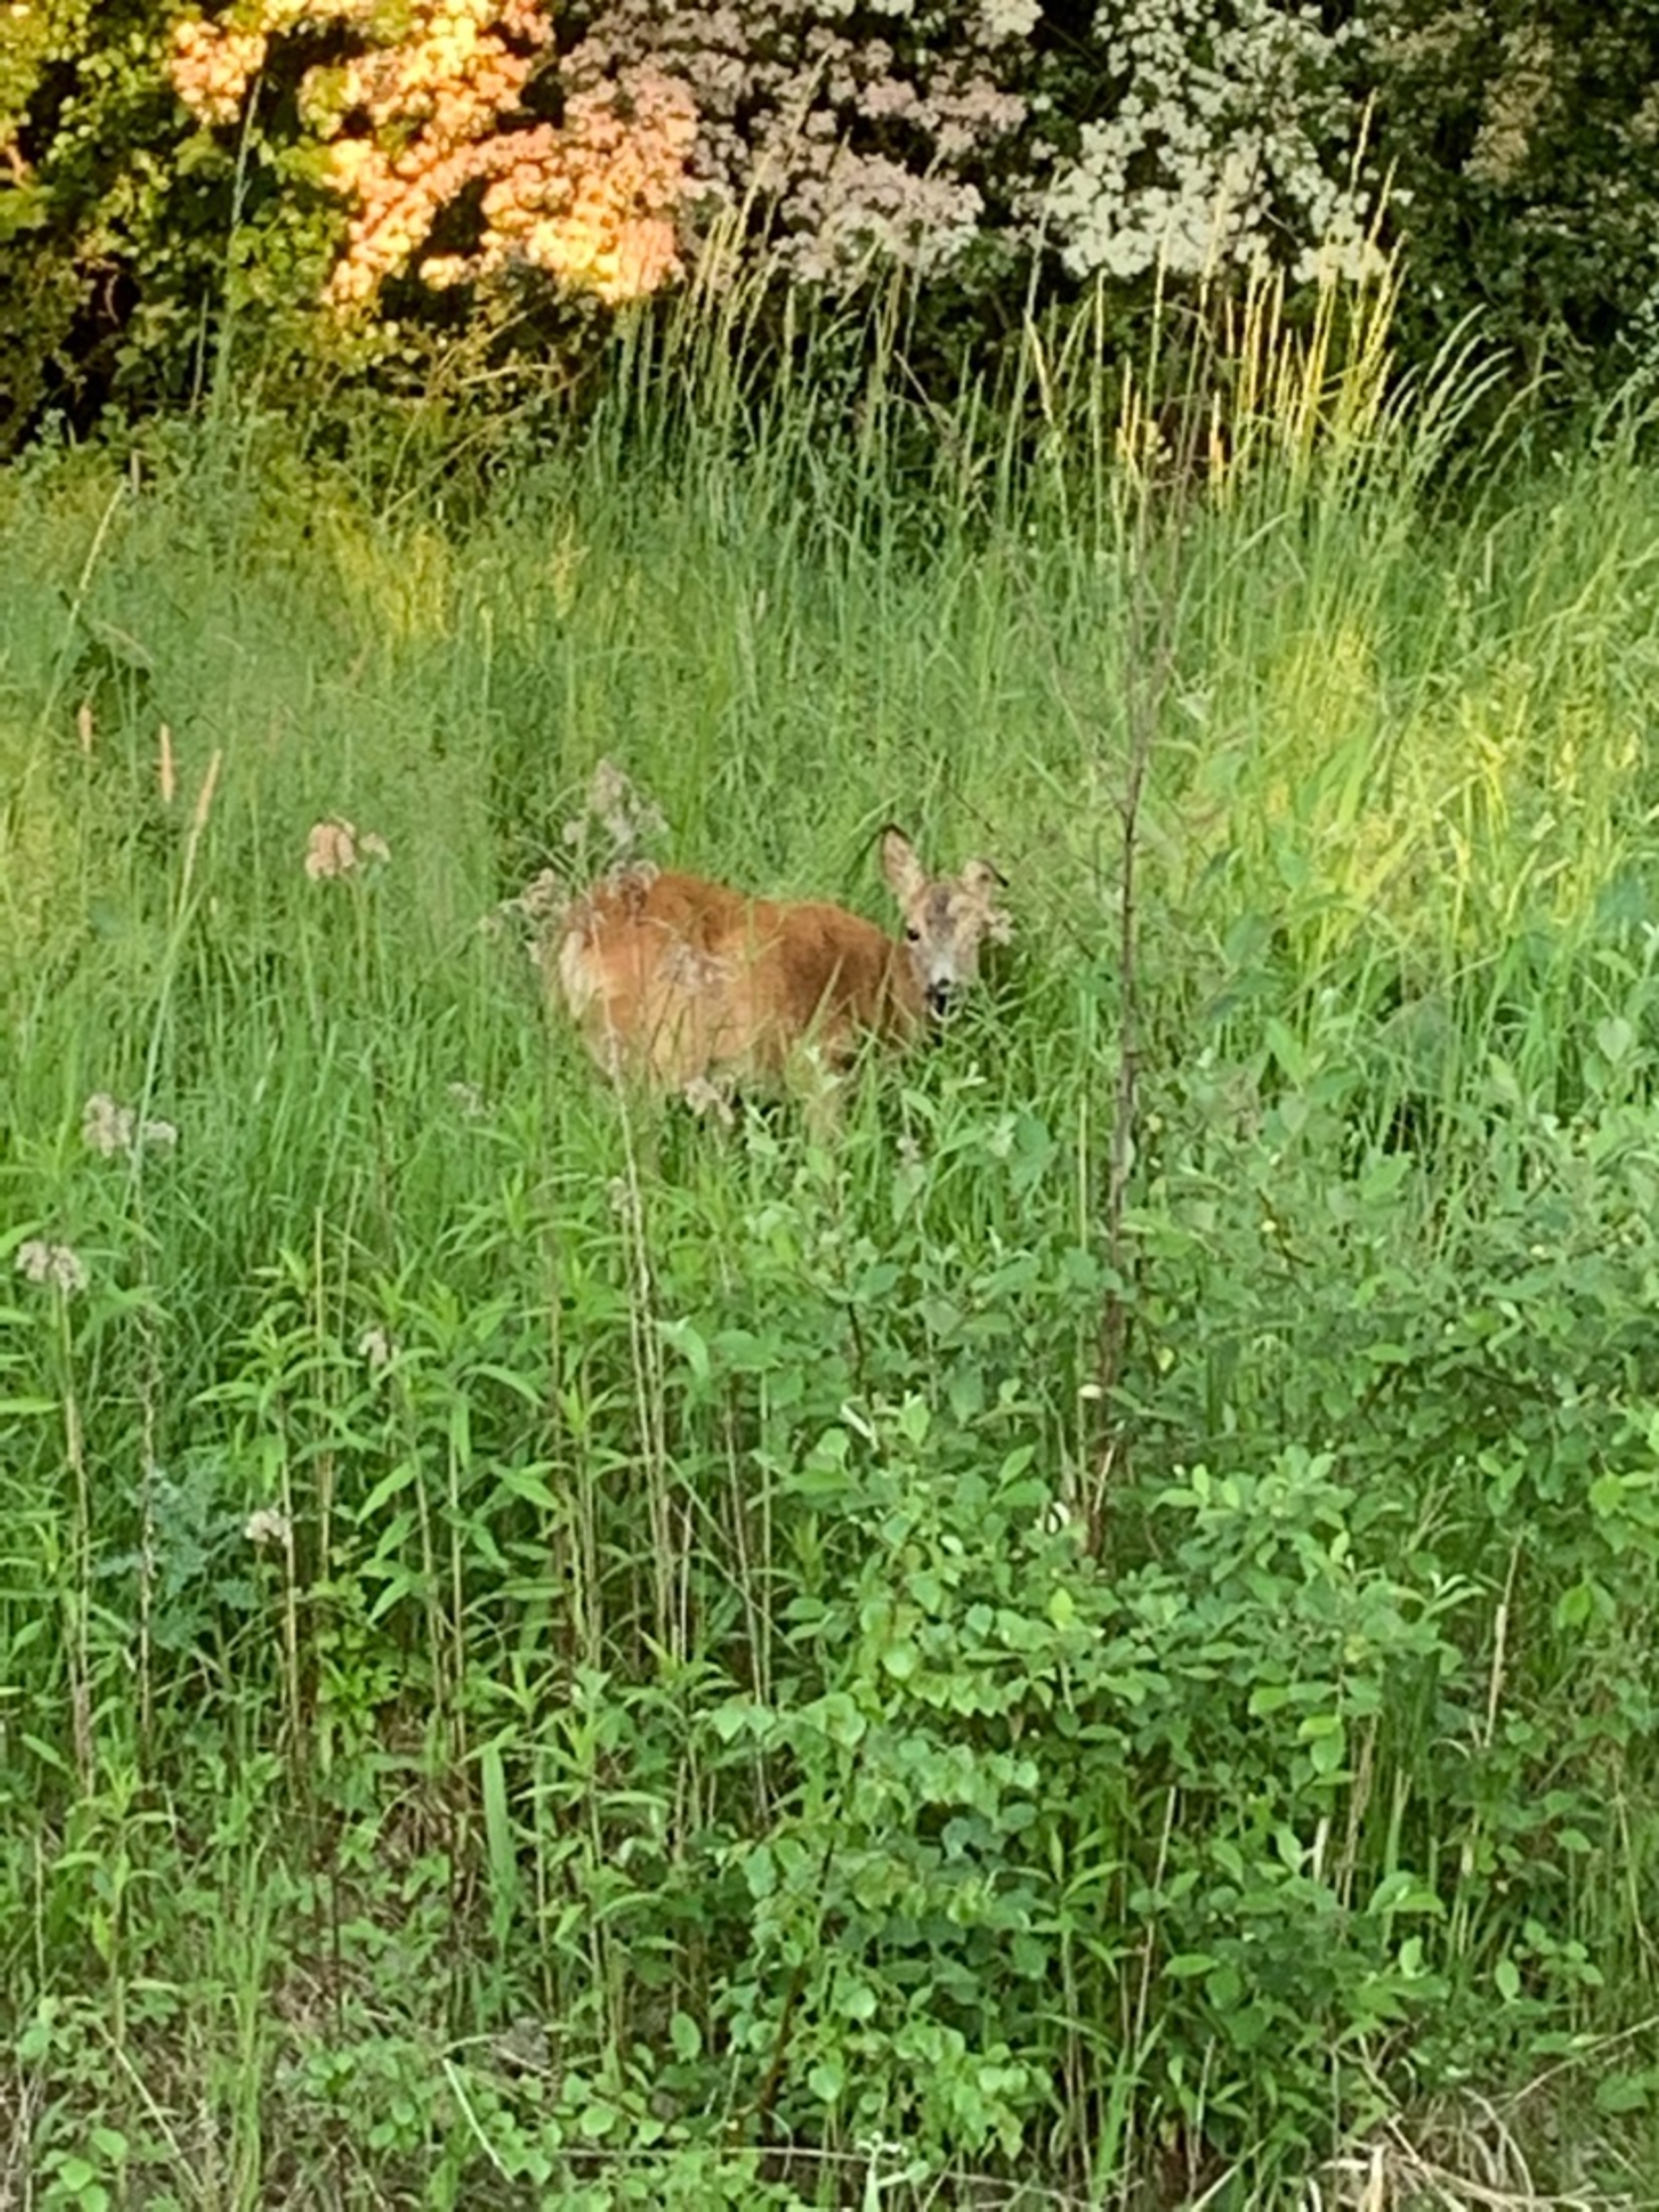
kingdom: Animalia
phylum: Chordata
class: Mammalia
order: Artiodactyla
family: Cervidae
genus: Capreolus
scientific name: Capreolus capreolus
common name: Rådyr
